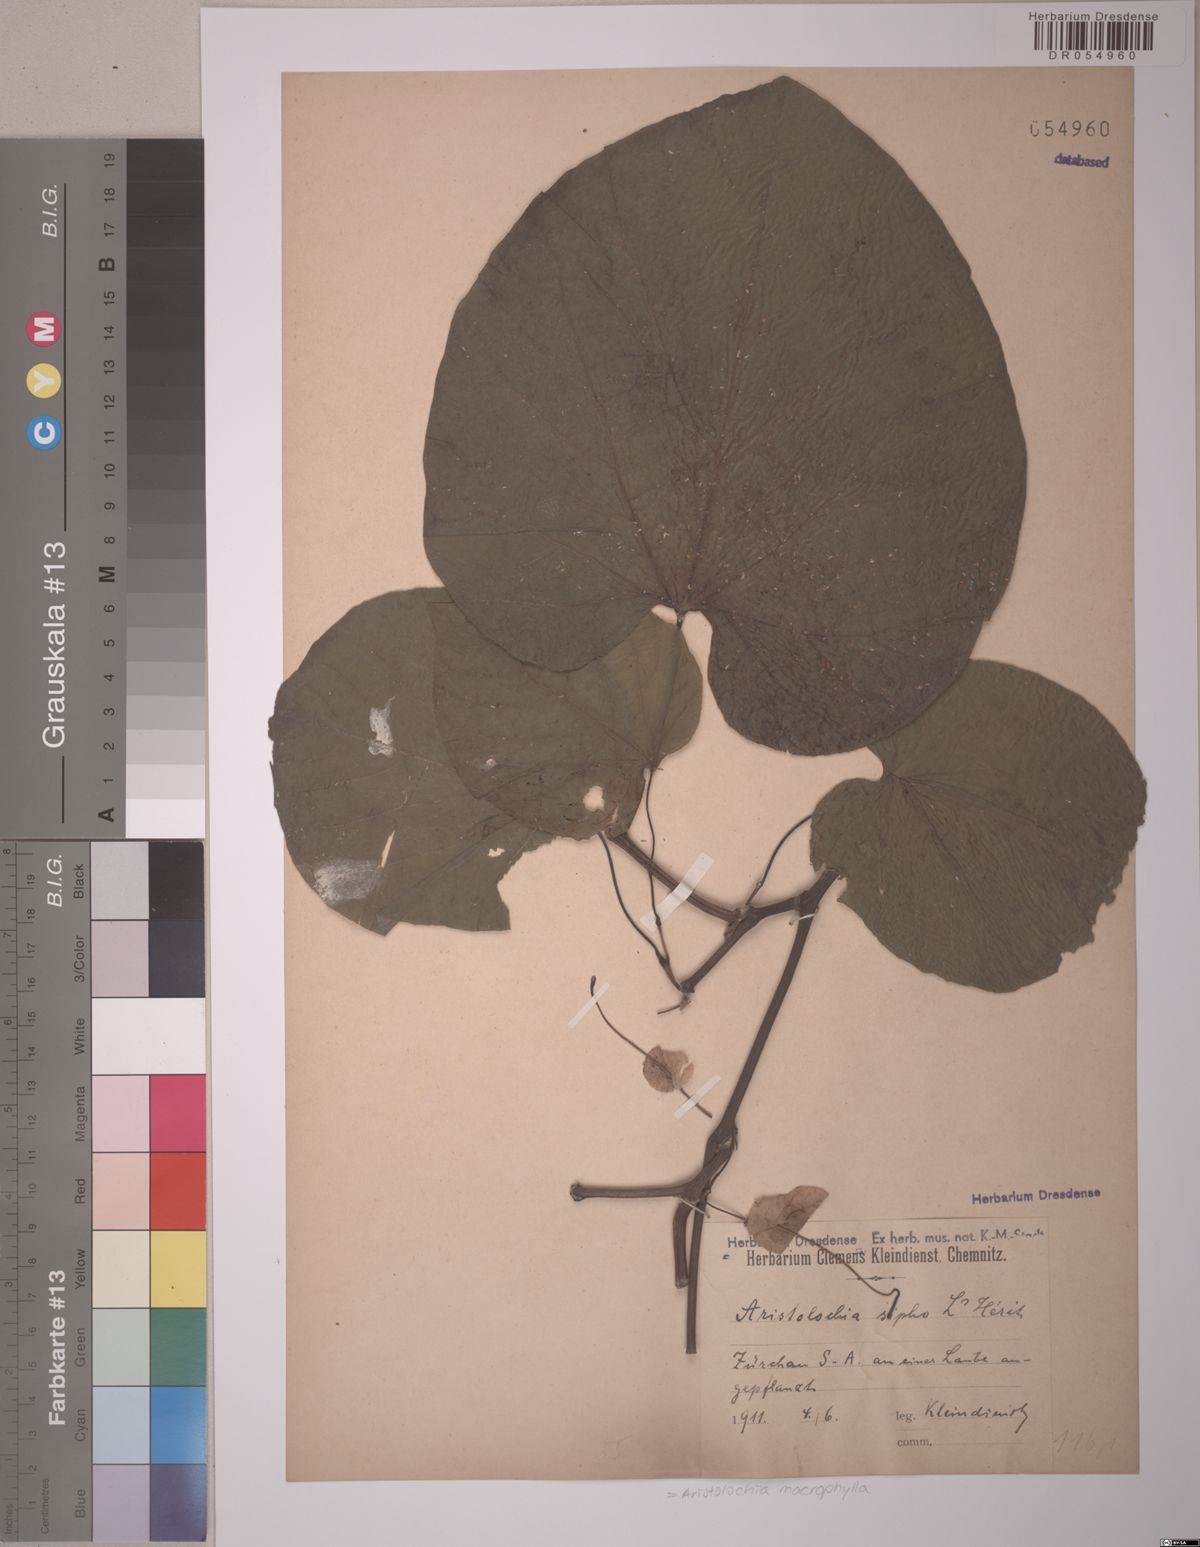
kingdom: Plantae
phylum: Tracheophyta
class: Magnoliopsida
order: Piperales
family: Aristolochiaceae
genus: Isotrema
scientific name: Isotrema macrophyllum
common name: Dutchman's-pipe
